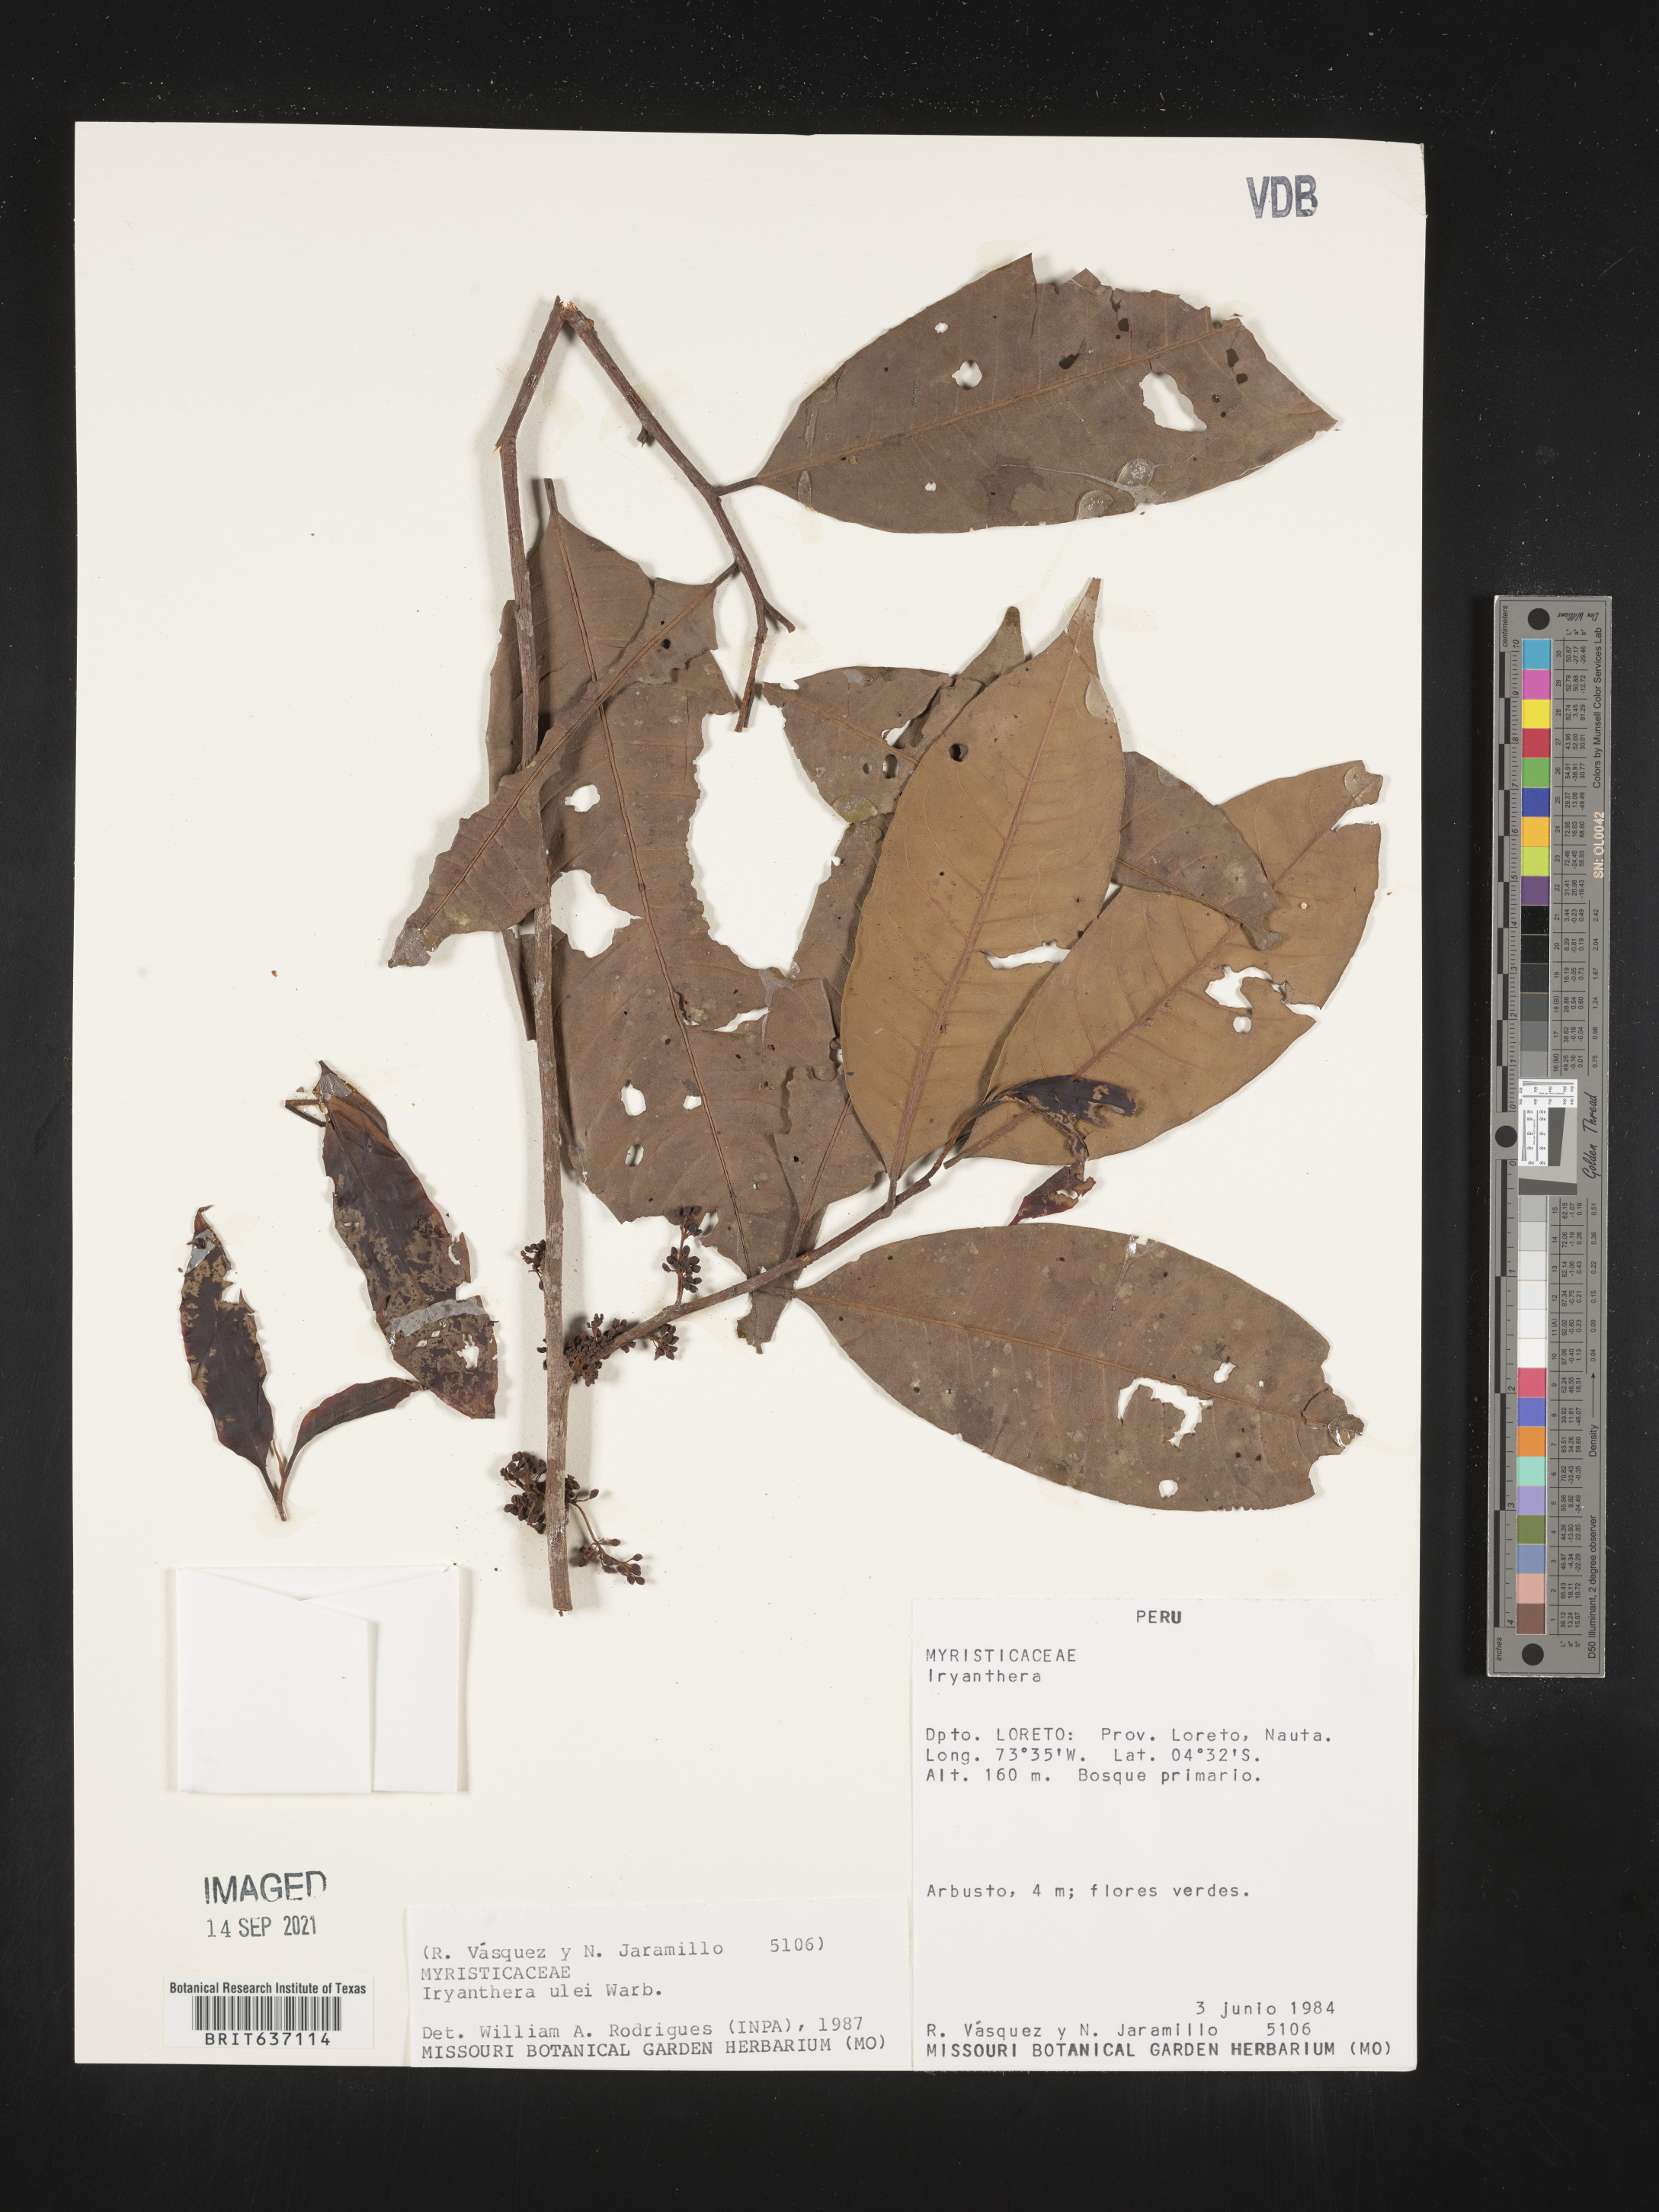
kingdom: Plantae
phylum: Tracheophyta
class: Magnoliopsida
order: Magnoliales
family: Myristicaceae
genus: Iryanthera
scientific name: Iryanthera
